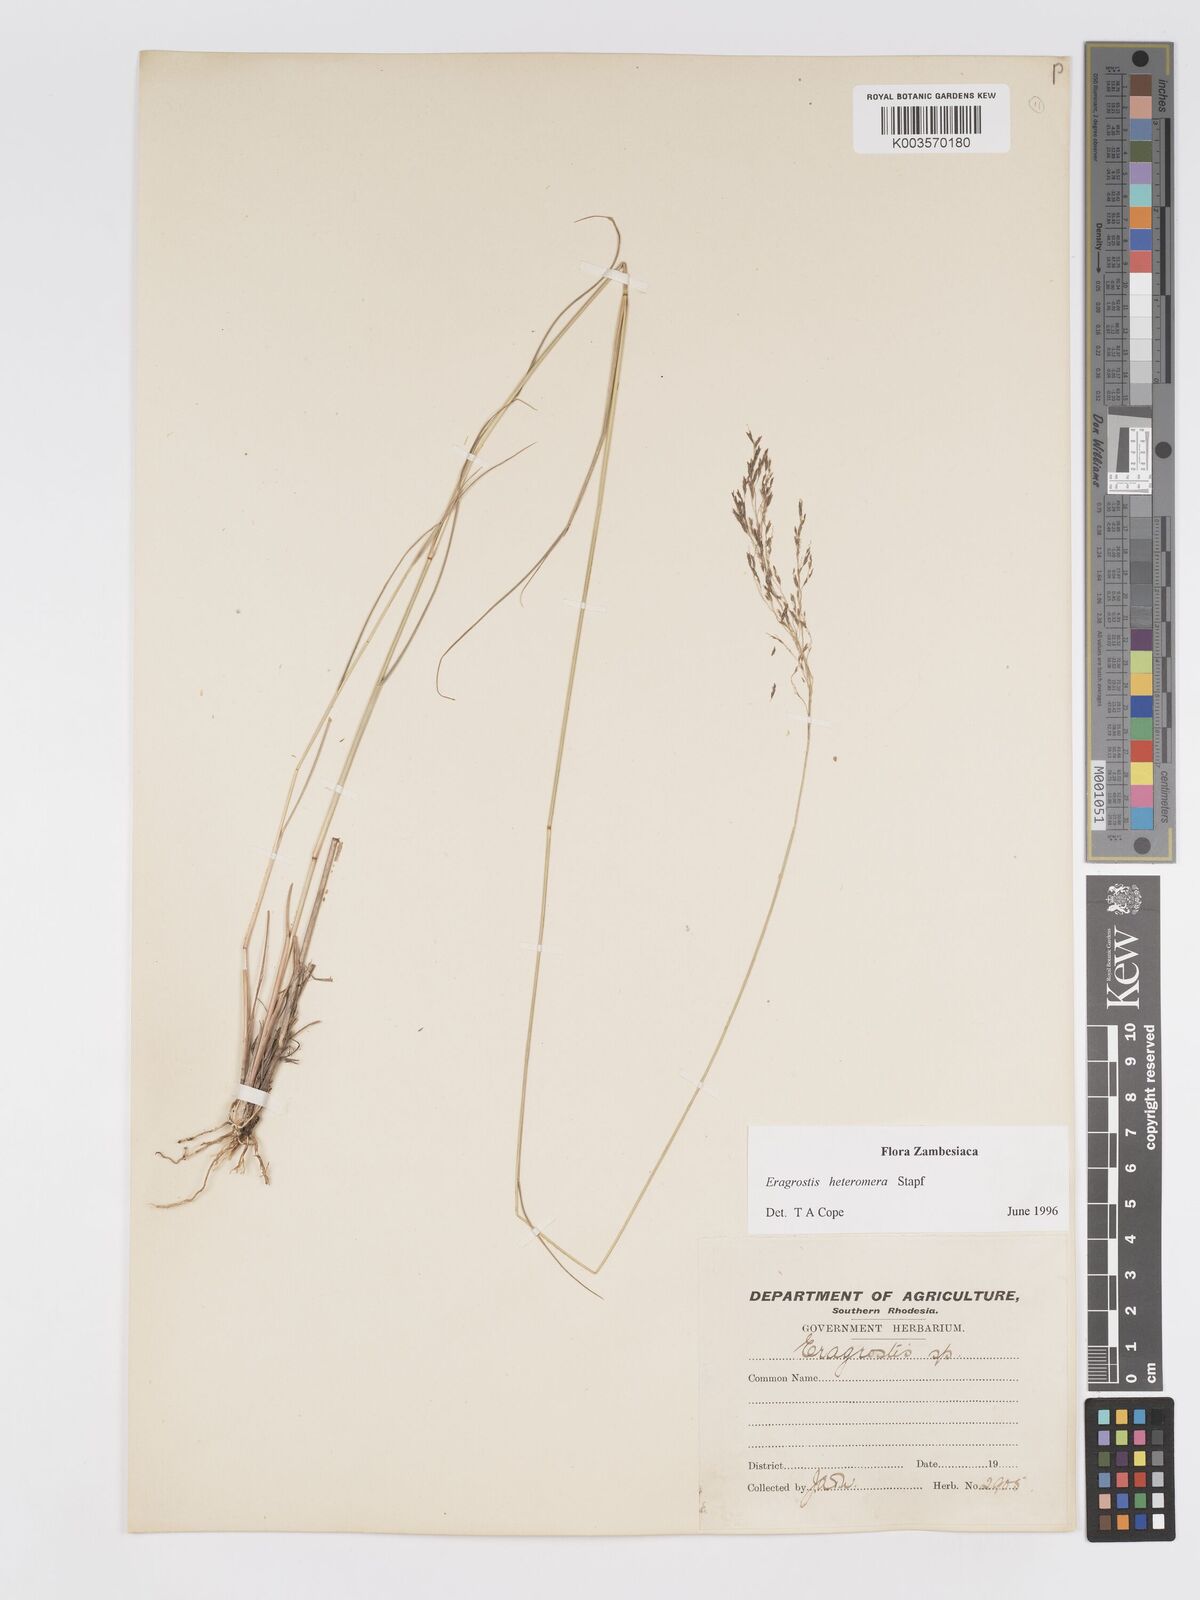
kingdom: Plantae
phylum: Tracheophyta
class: Liliopsida
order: Poales
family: Poaceae
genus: Eragrostis
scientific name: Eragrostis heteromera
